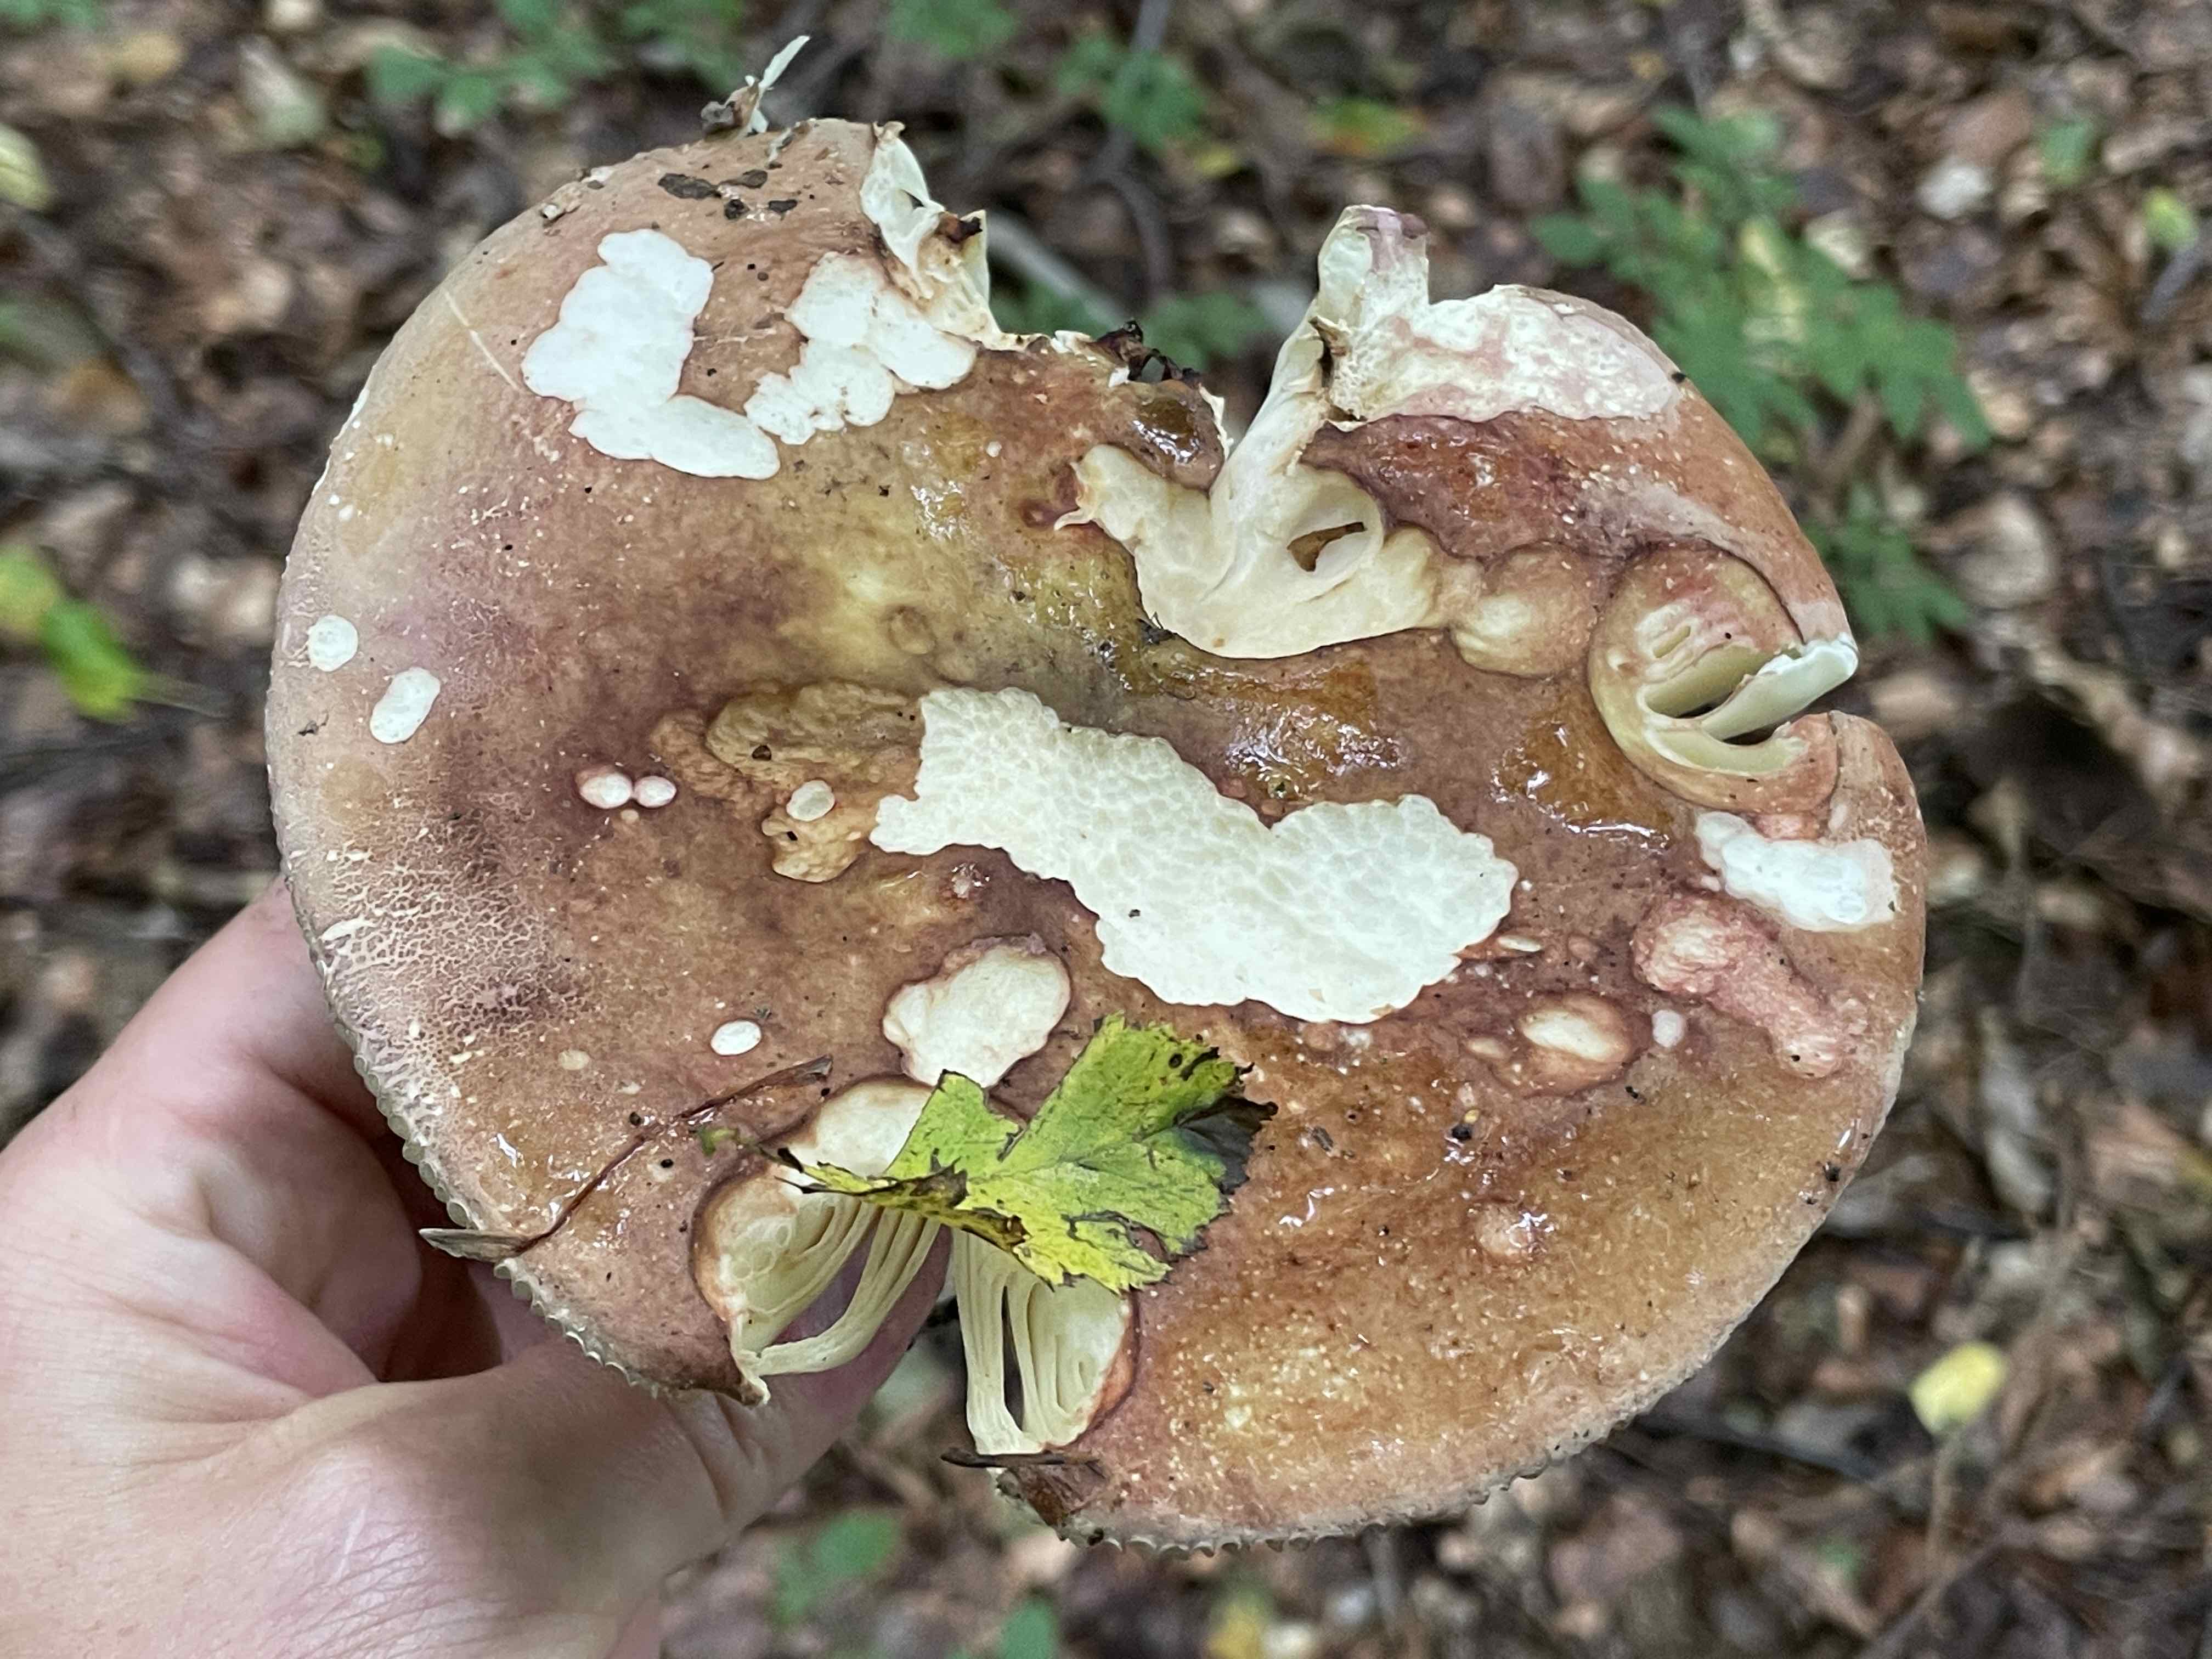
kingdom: Fungi
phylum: Basidiomycota
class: Agaricomycetes
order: Russulales
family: Russulaceae
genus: Russula
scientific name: Russula olivacea
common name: stor skørhat
